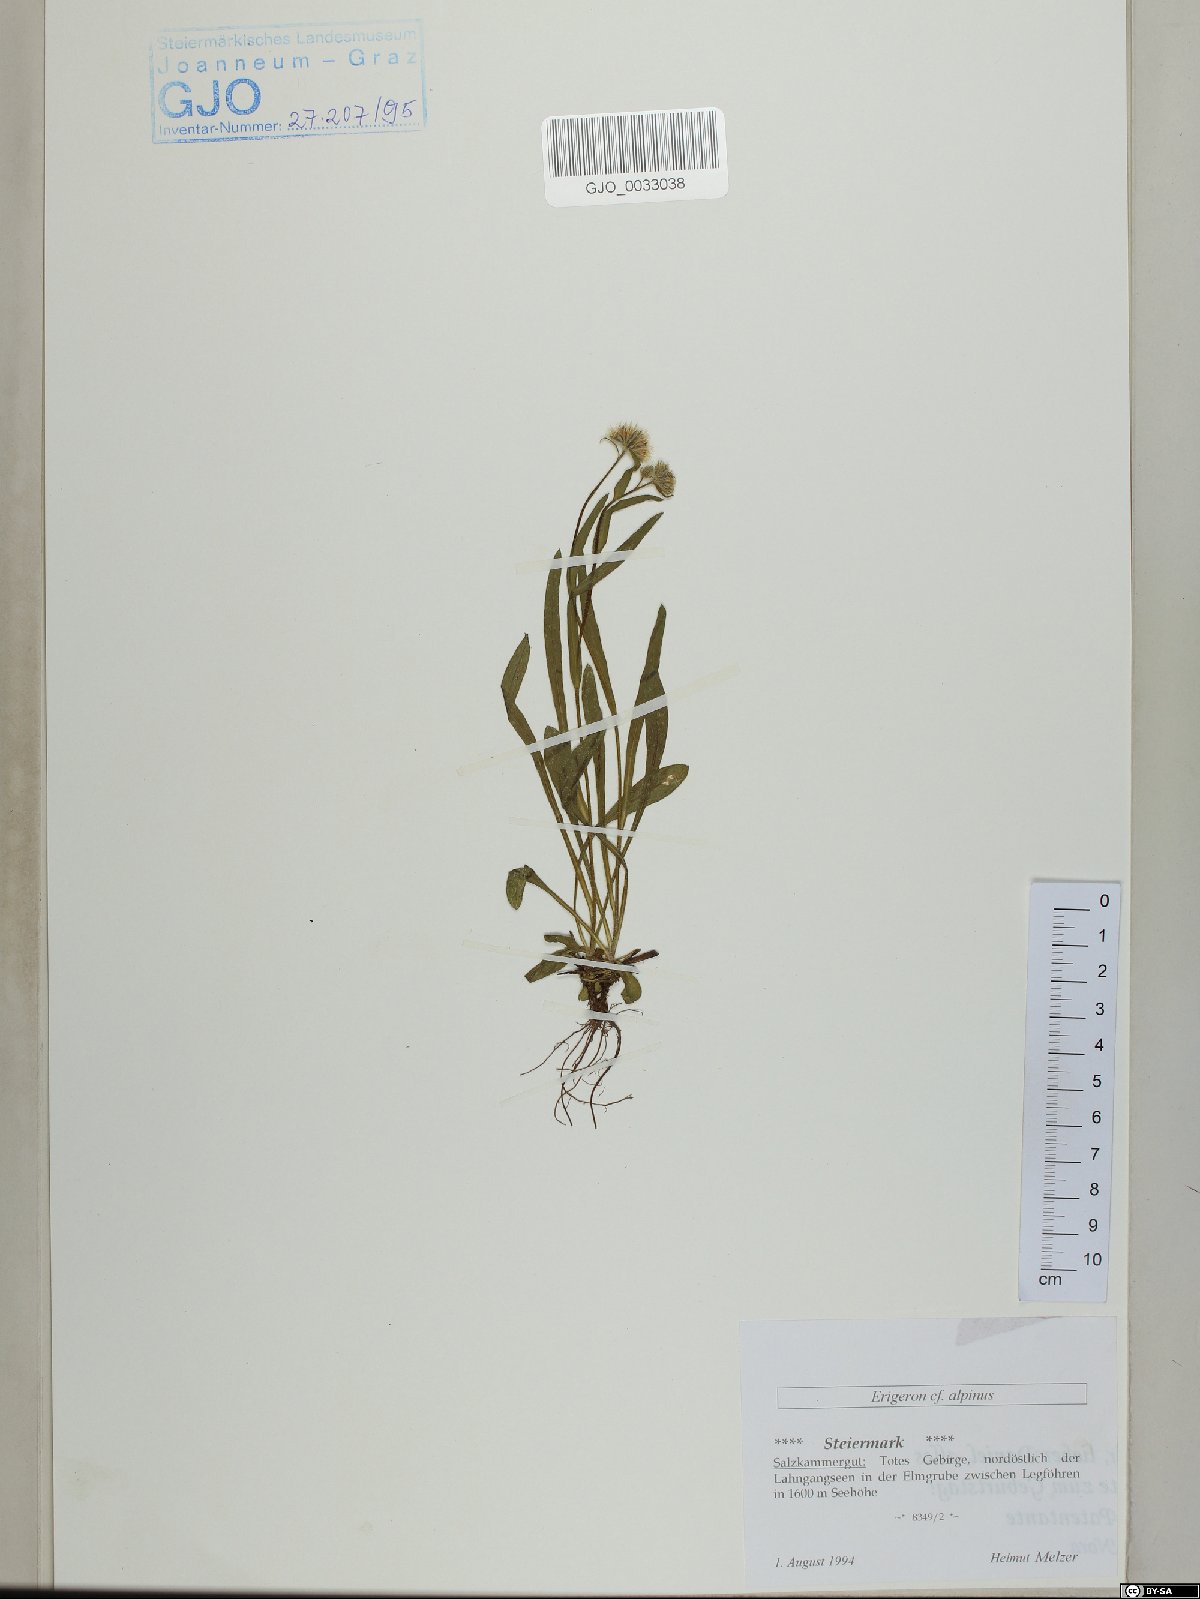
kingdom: Plantae
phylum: Tracheophyta
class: Magnoliopsida
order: Asterales
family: Asteraceae
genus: Erigeron
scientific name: Erigeron alpinus
